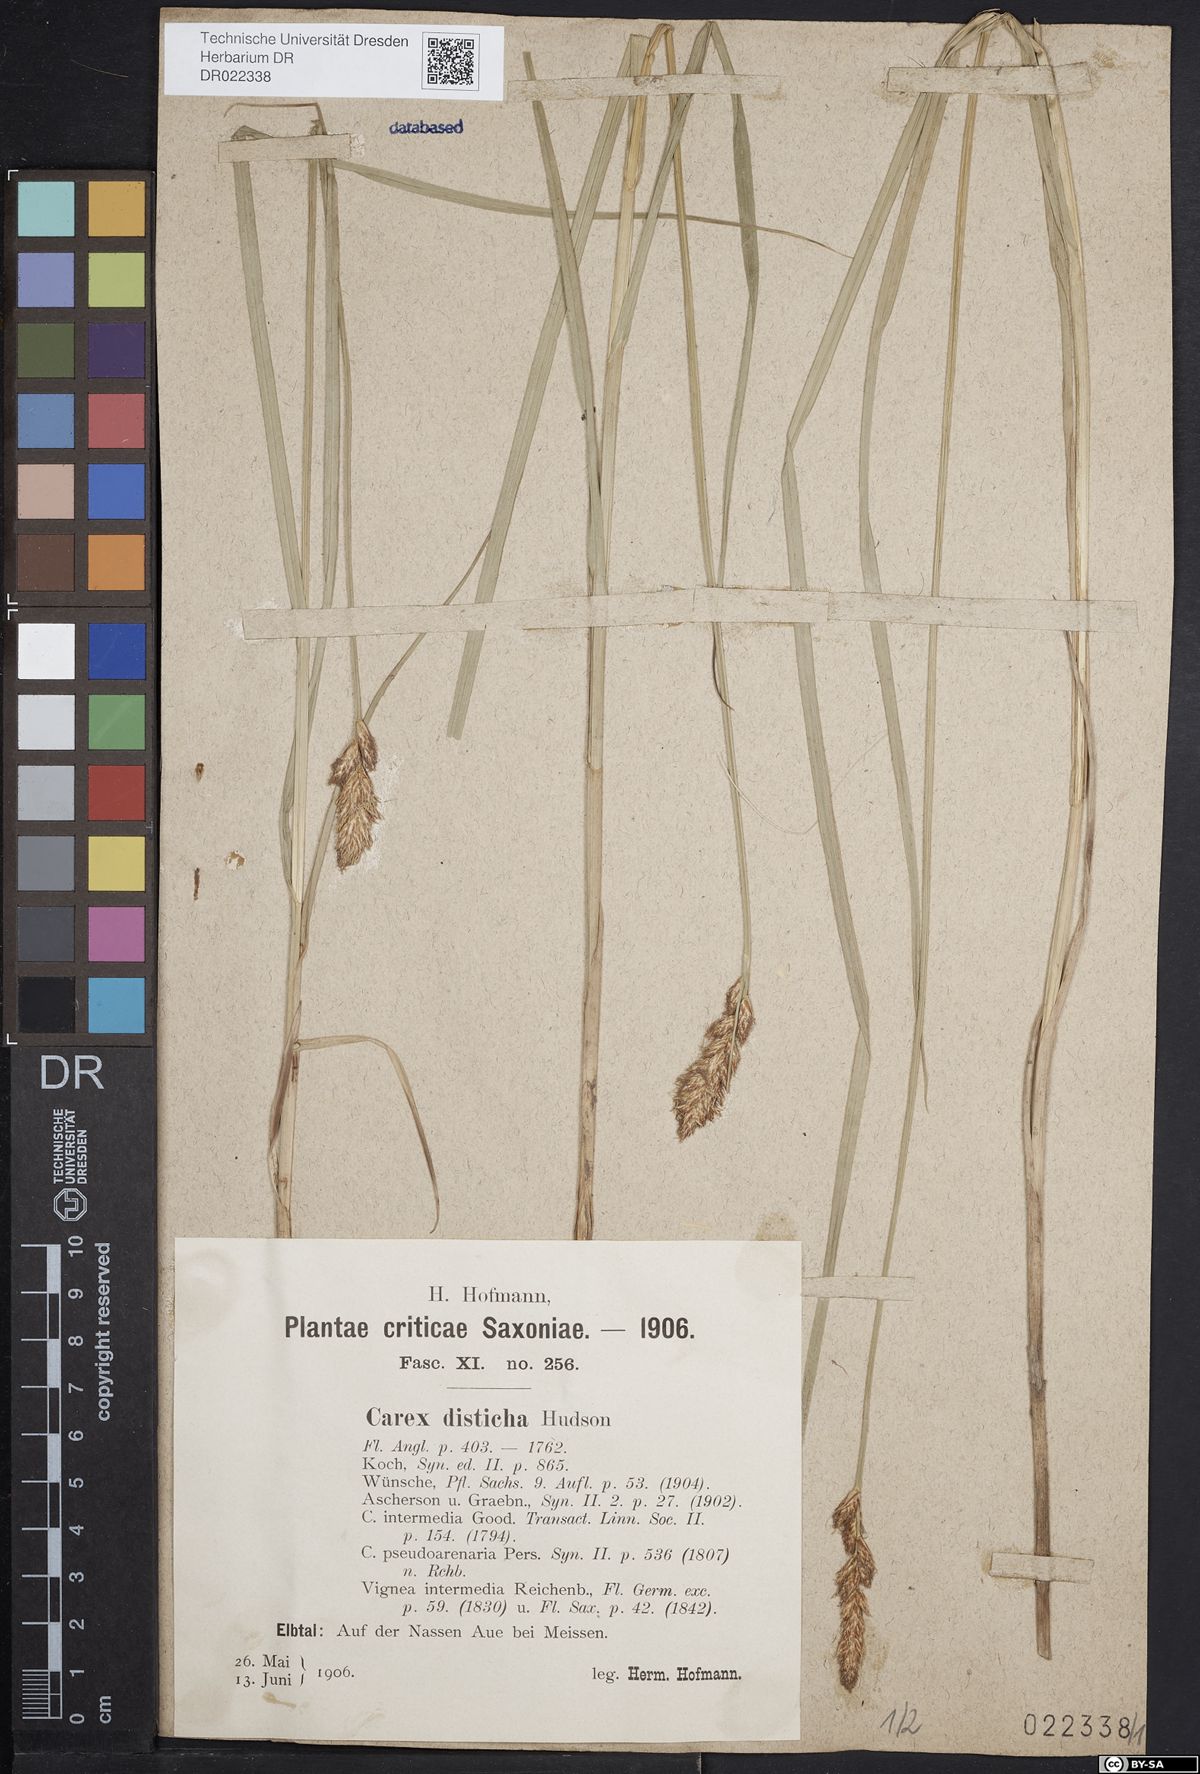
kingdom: Plantae
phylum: Tracheophyta
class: Liliopsida
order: Poales
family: Cyperaceae
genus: Carex
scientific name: Carex disticha
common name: Brown sedge
